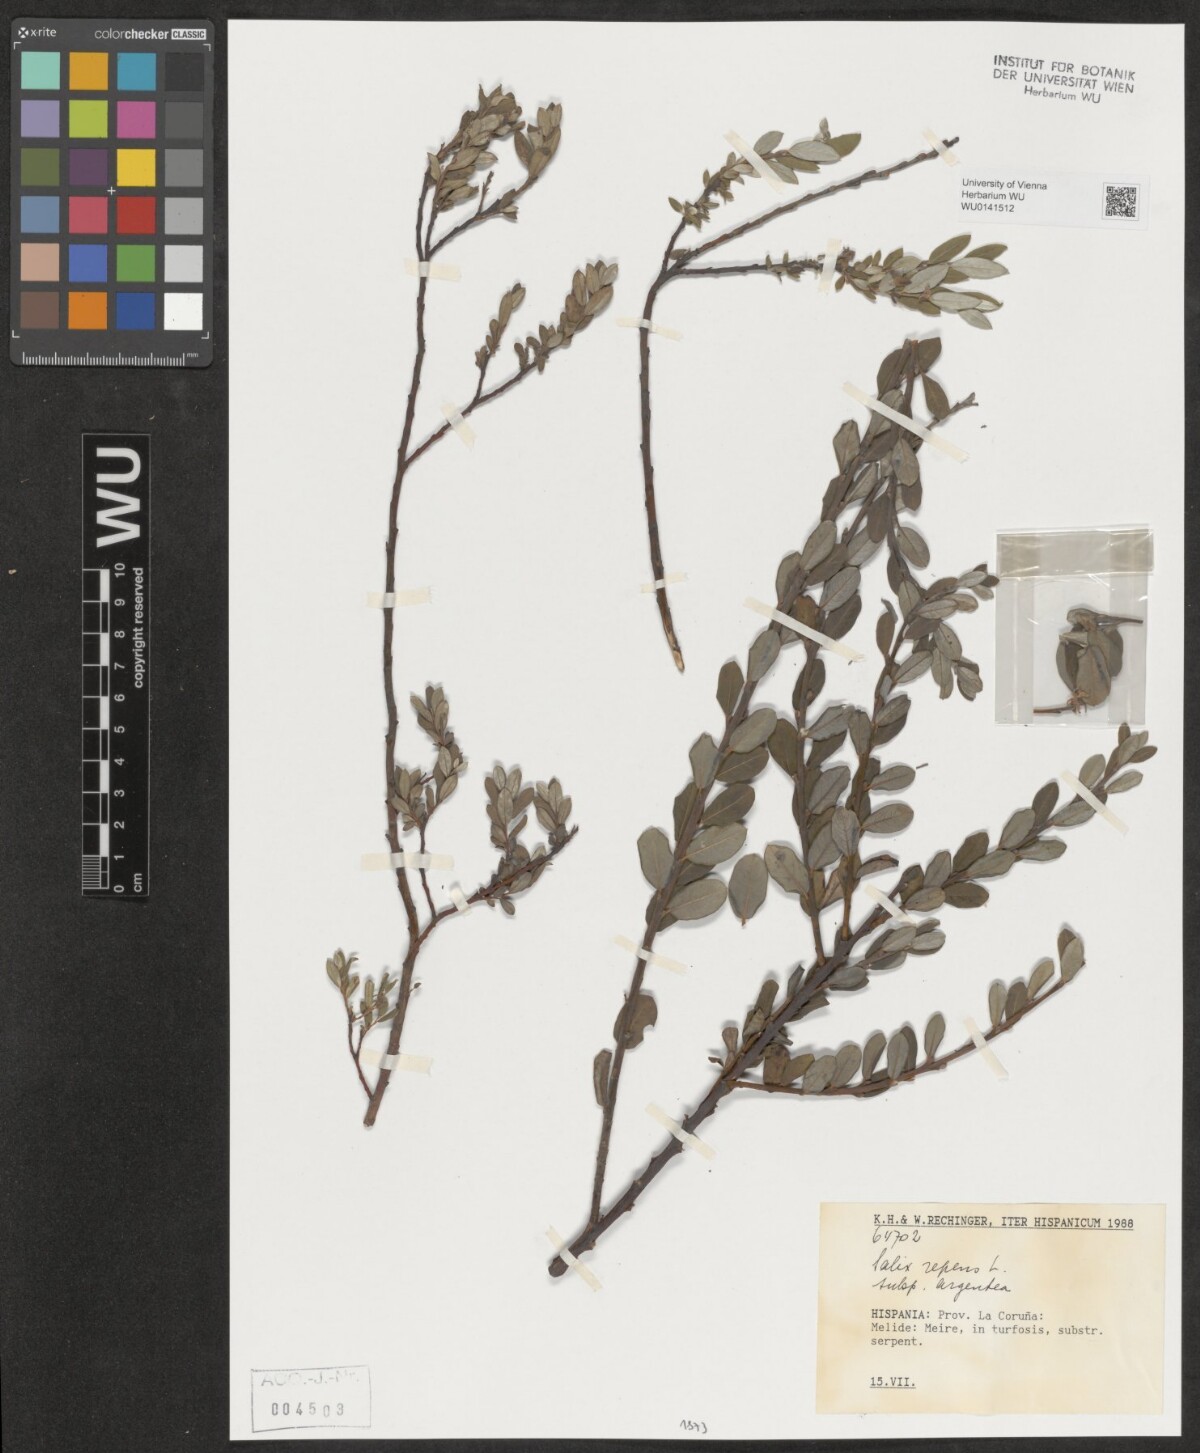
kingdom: Plantae
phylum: Tracheophyta
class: Magnoliopsida
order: Malpighiales
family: Salicaceae
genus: Salix
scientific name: Salix repens
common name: Creeping willow
